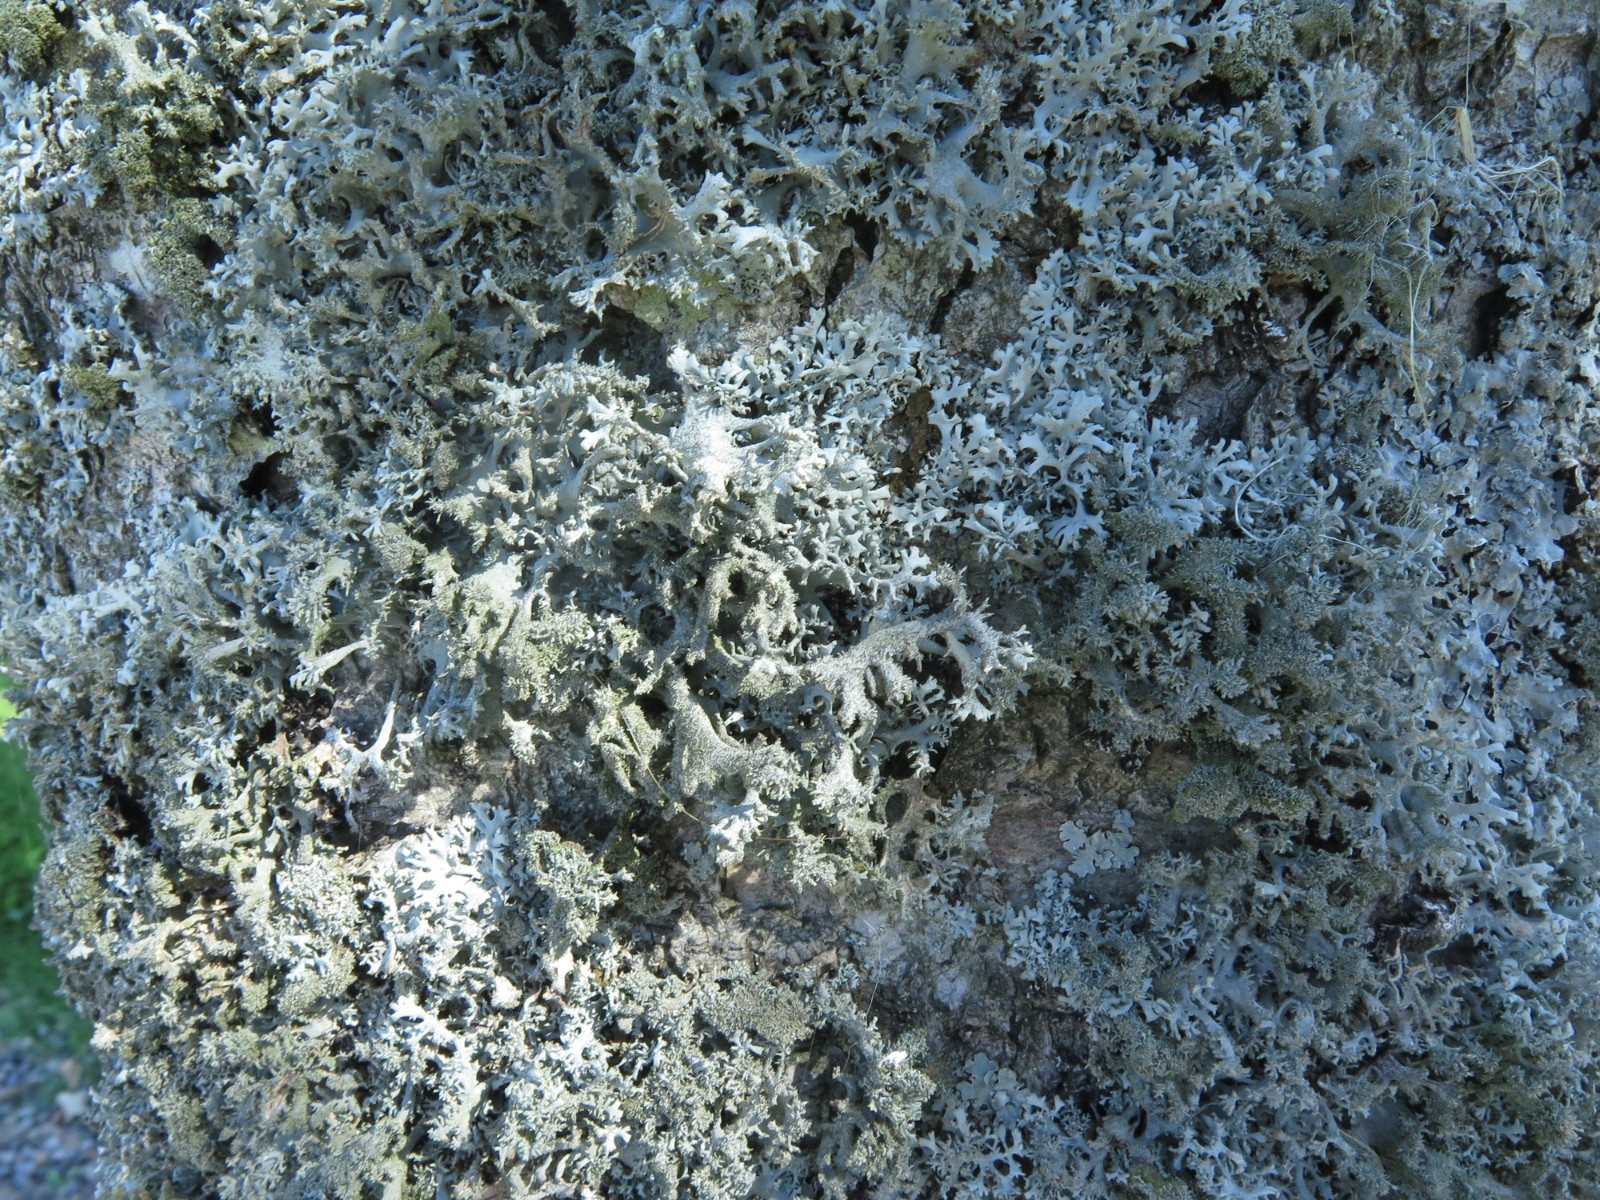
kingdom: Fungi
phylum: Ascomycota
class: Lecanoromycetes
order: Lecanorales
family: Parmeliaceae
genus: Pseudevernia
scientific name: Pseudevernia furfuracea
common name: grå fyrrelav
